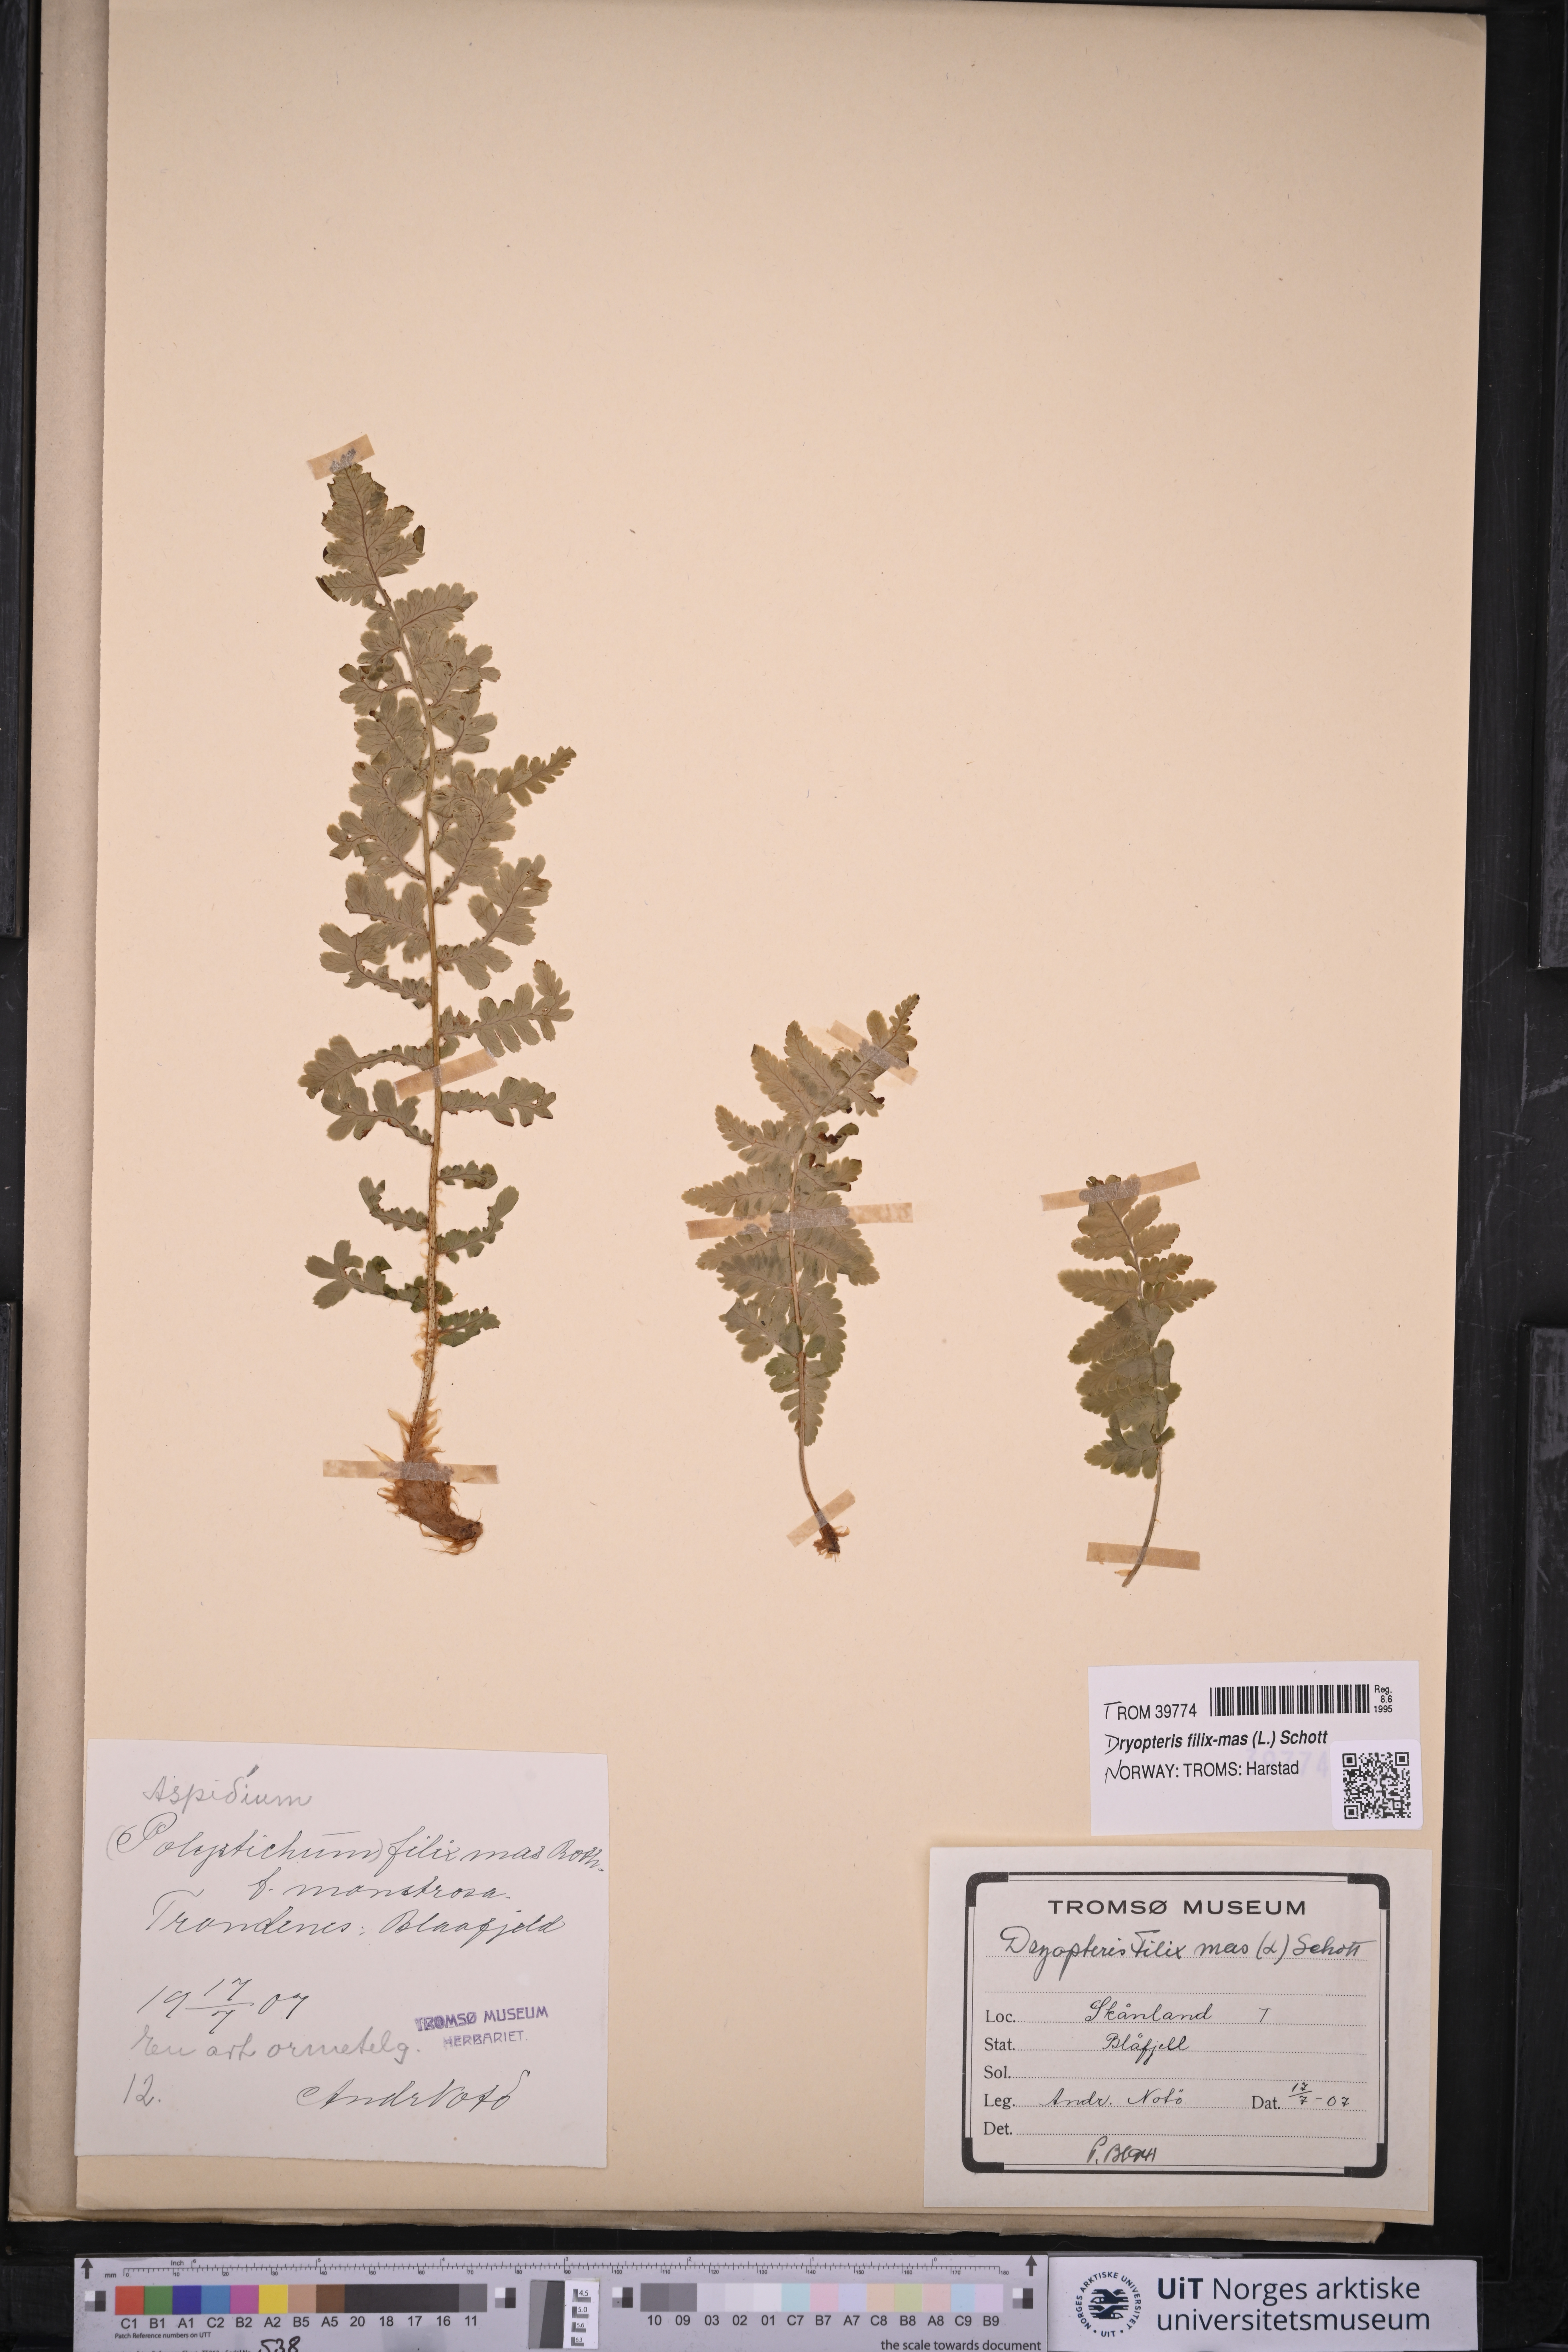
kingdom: Plantae
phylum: Tracheophyta
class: Polypodiopsida
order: Polypodiales
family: Dryopteridaceae
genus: Dryopteris
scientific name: Dryopteris filix-mas
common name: Male fern
